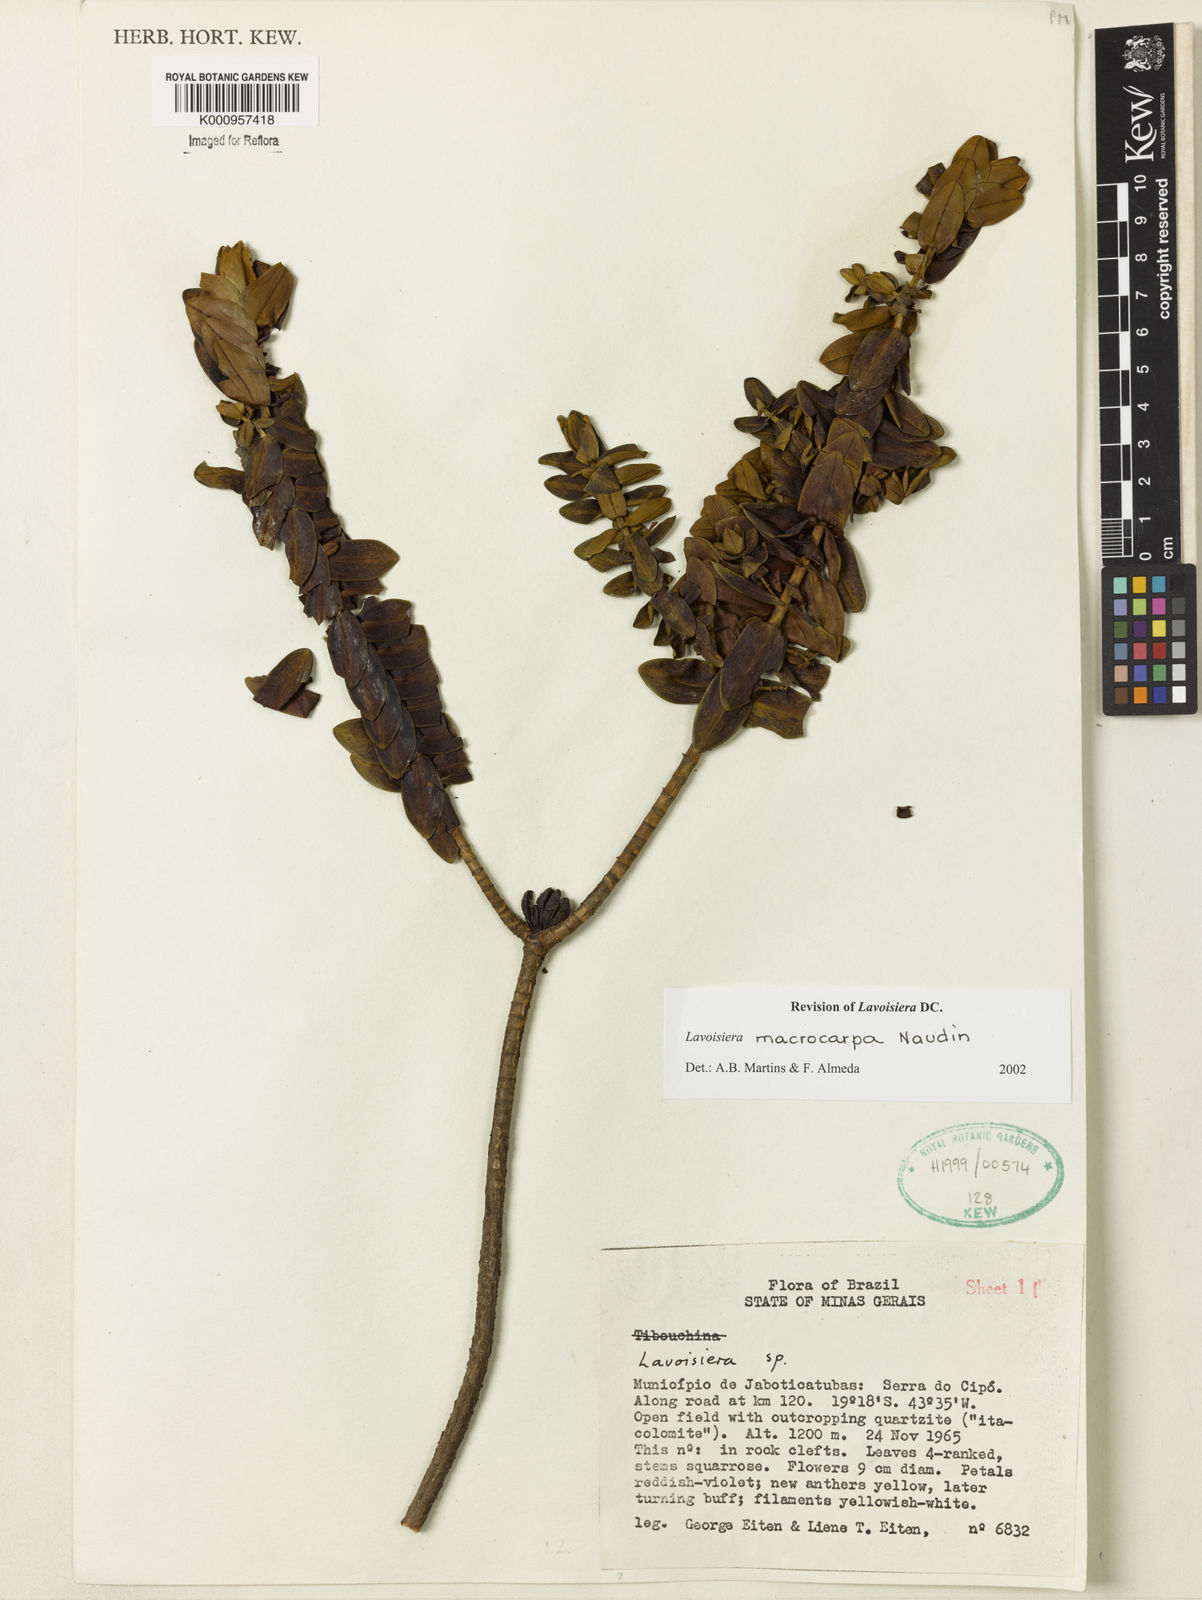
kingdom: Plantae
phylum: Tracheophyta
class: Magnoliopsida
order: Myrtales
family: Melastomataceae
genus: Microlicia
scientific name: Microlicia macrocarpa
